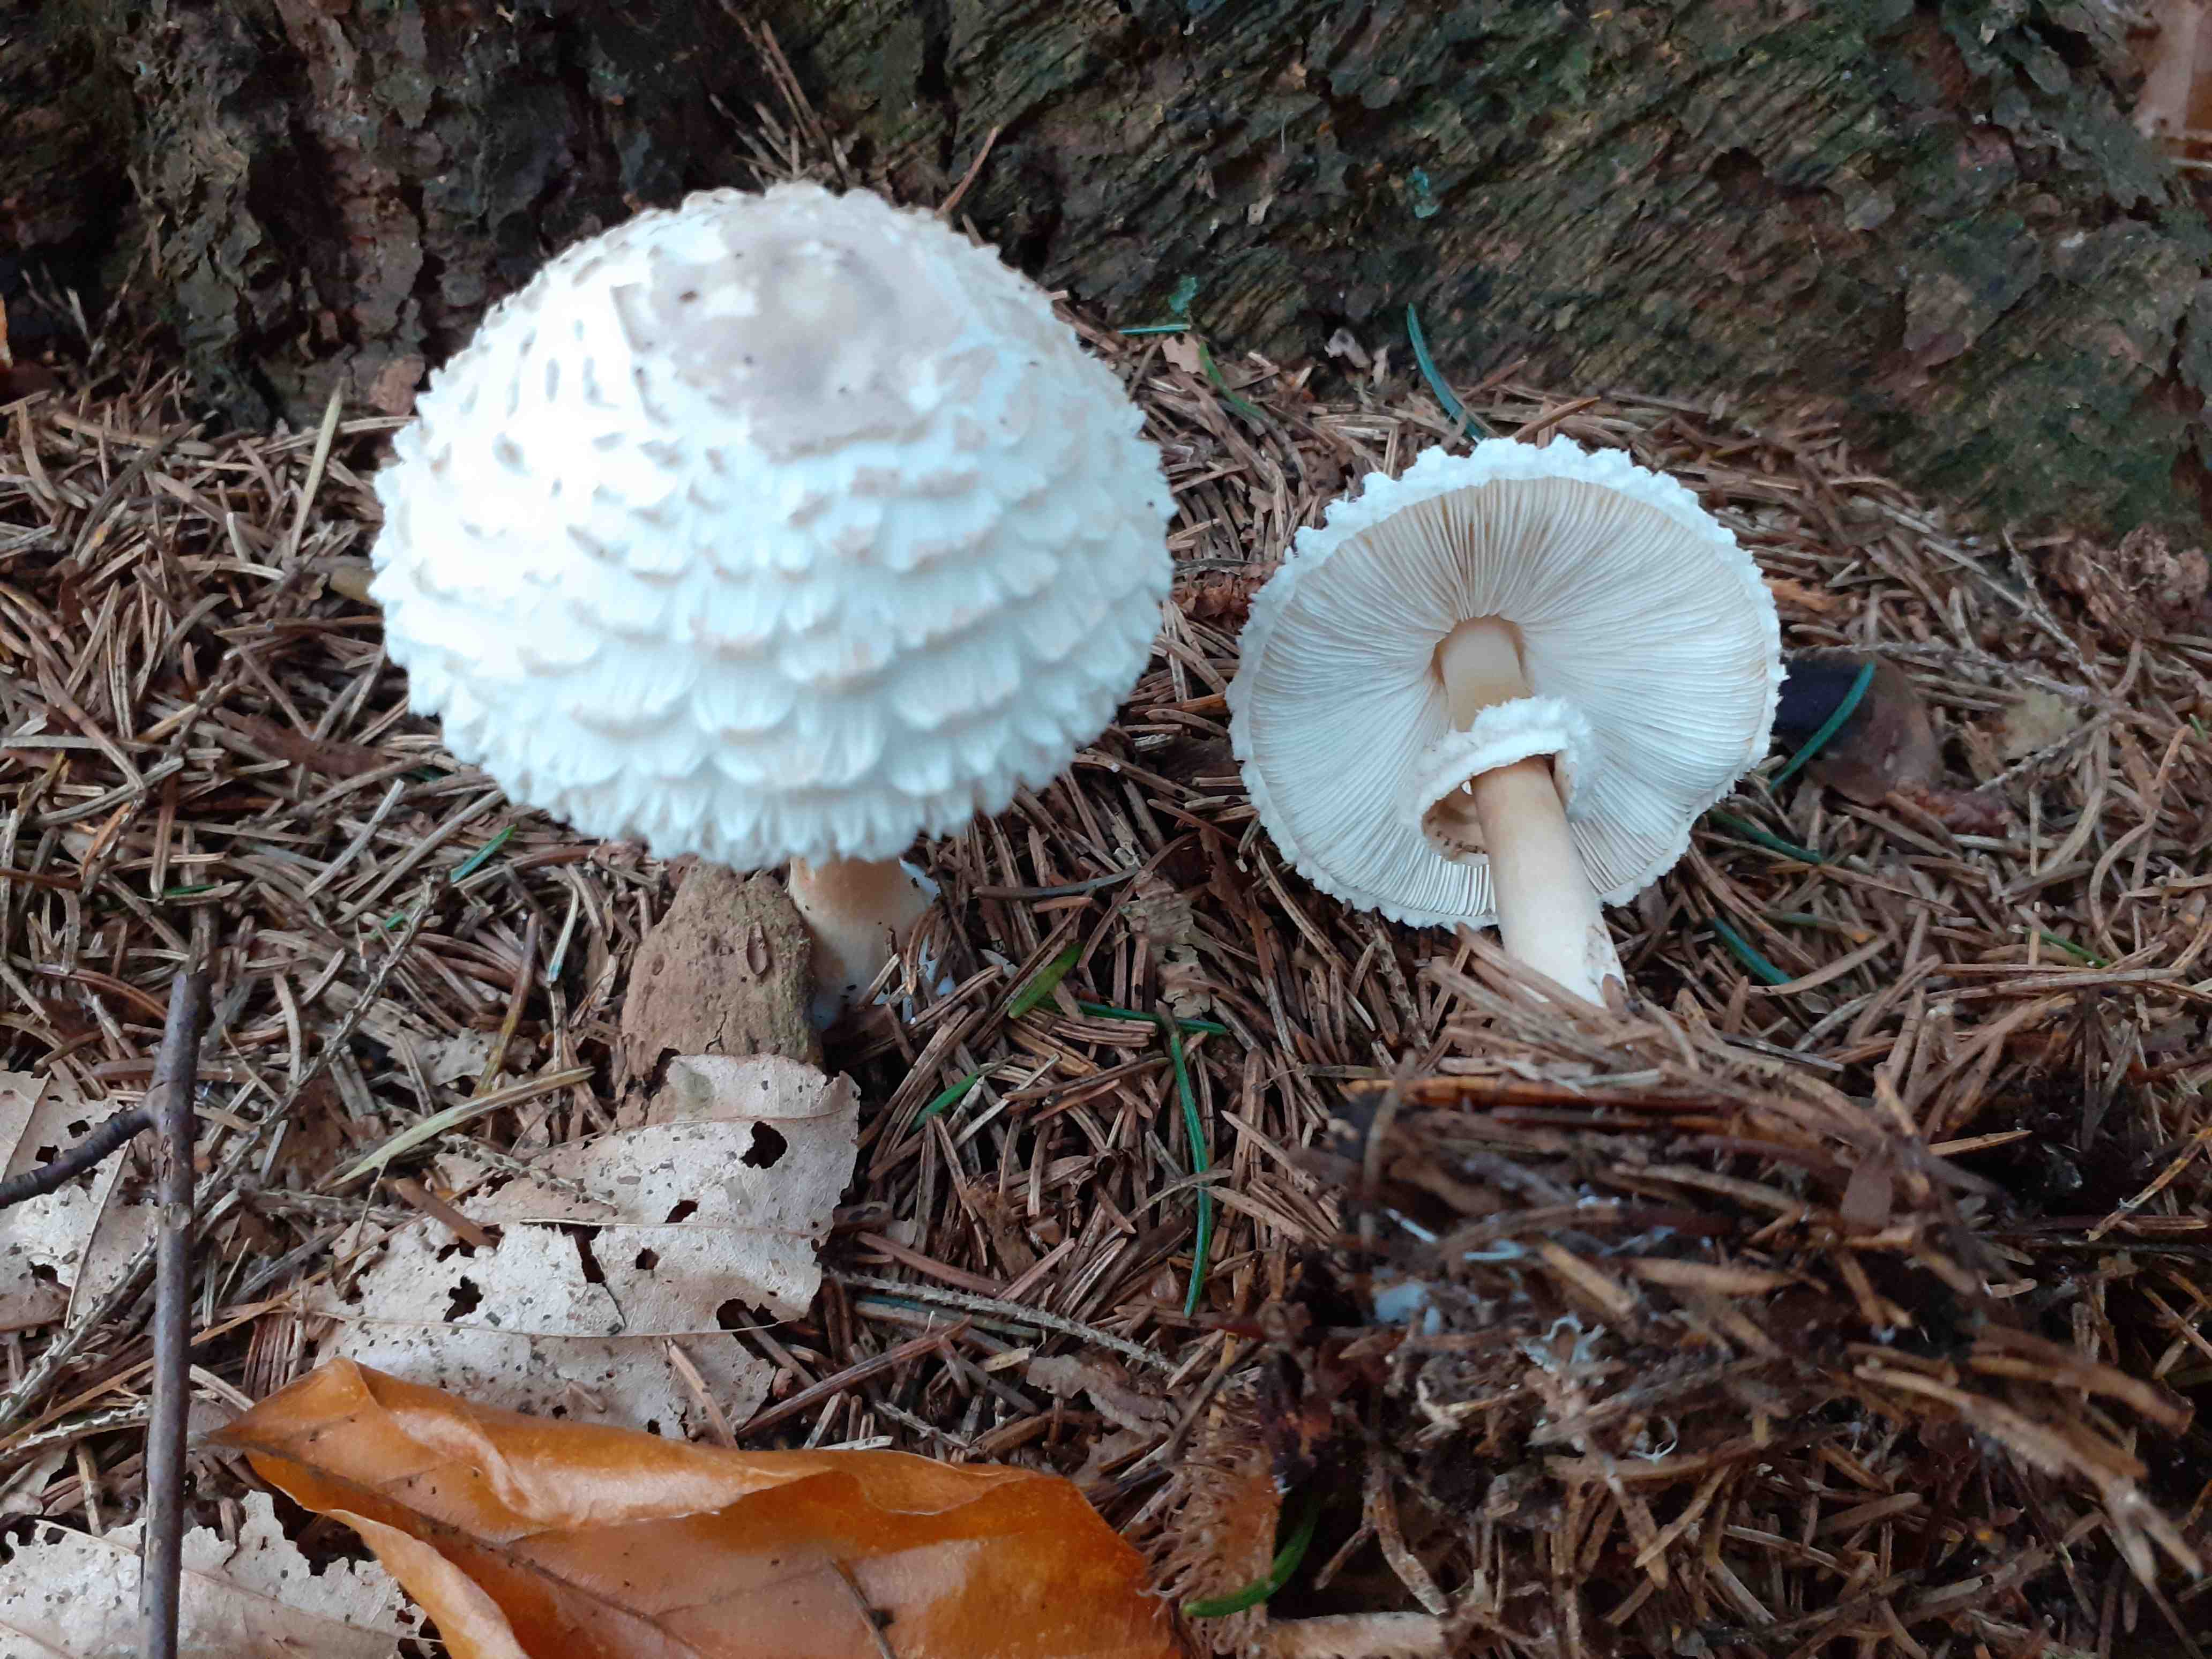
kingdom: Fungi
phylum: Basidiomycota
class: Agaricomycetes
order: Agaricales
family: Agaricaceae
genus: Leucoagaricus
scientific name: Leucoagaricus nympharum
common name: gran-silkehat
